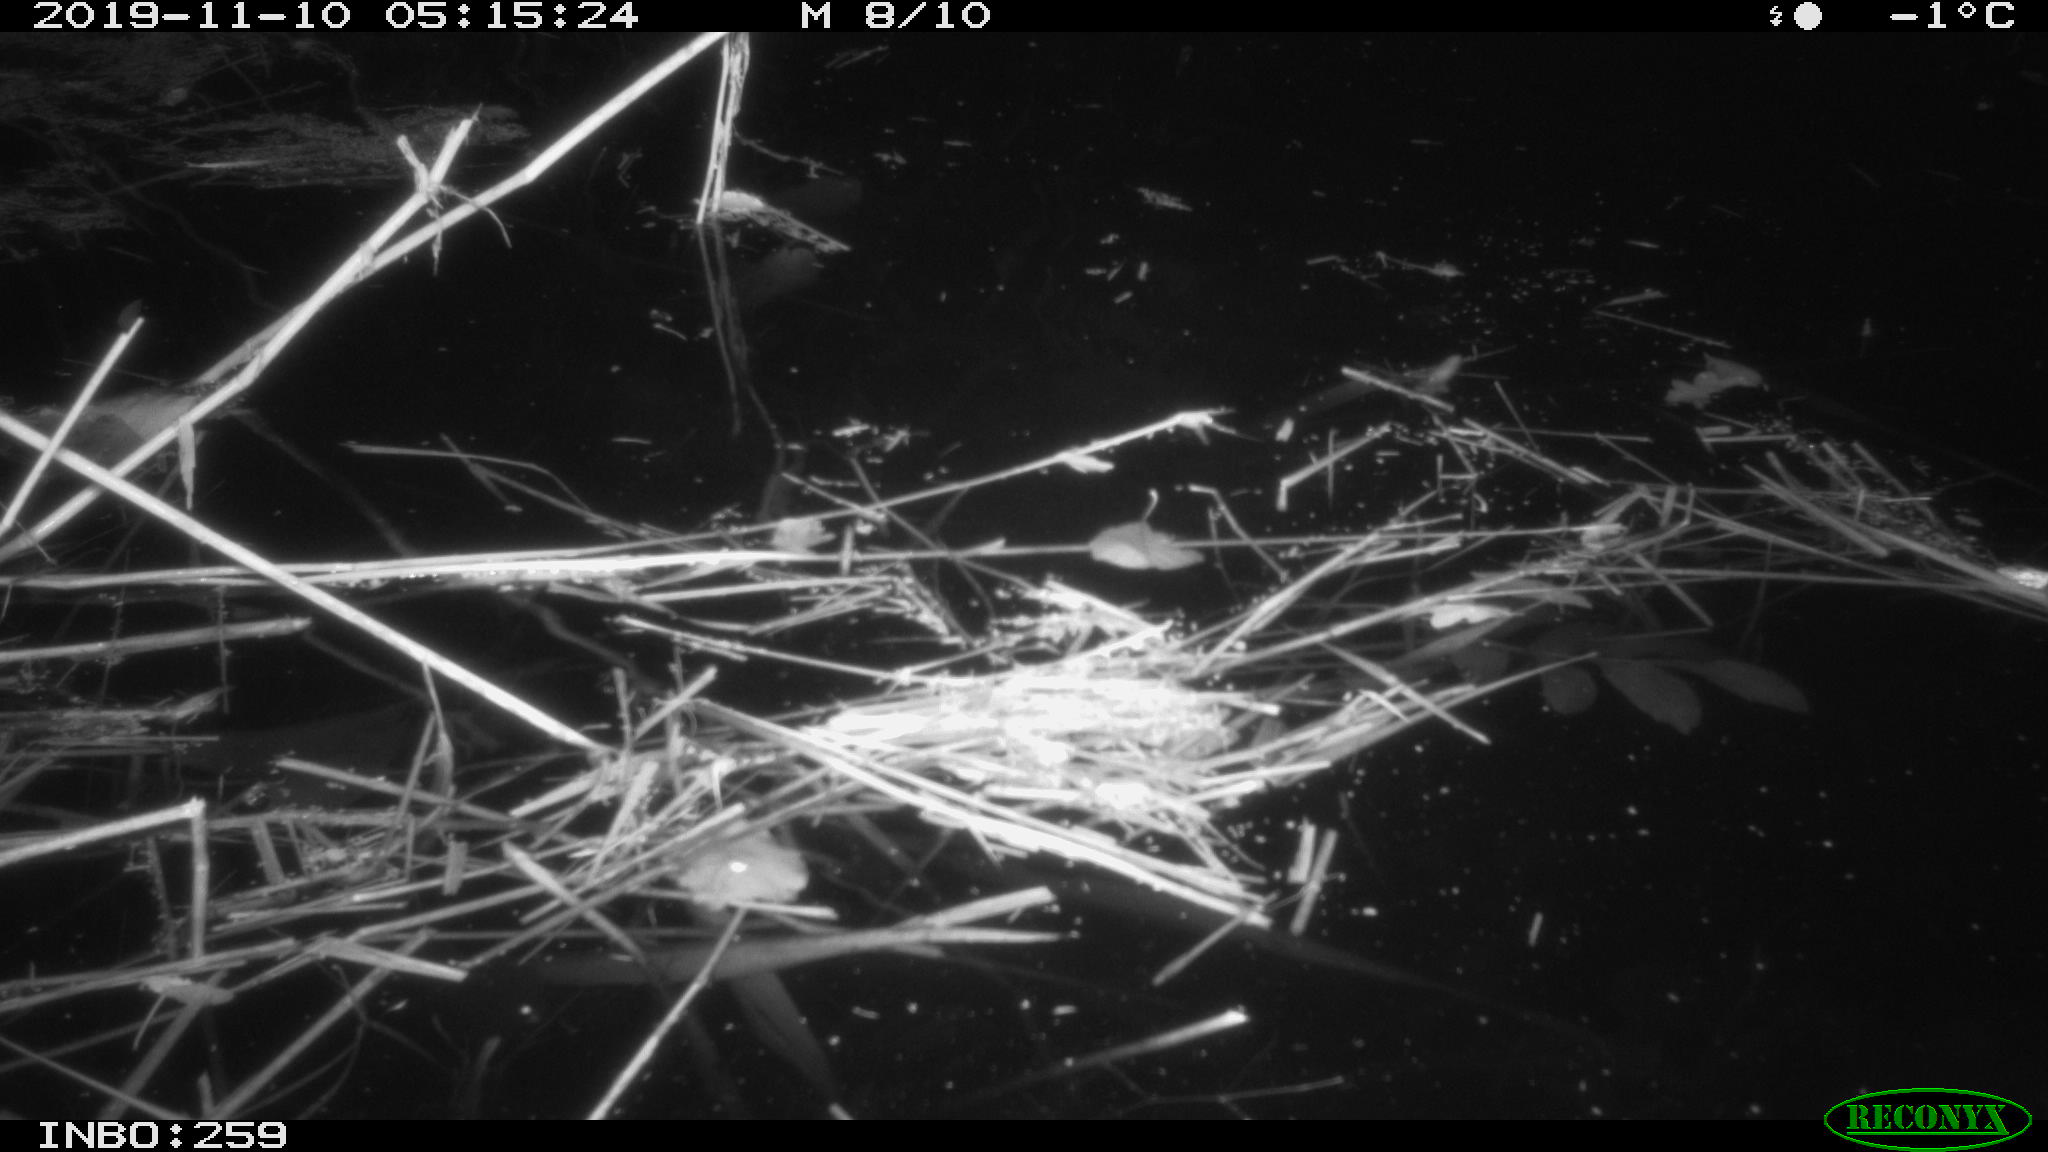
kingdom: Animalia
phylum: Chordata
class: Mammalia
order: Rodentia
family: Cricetidae
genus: Ondatra
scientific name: Ondatra zibethicus
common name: Muskrat
